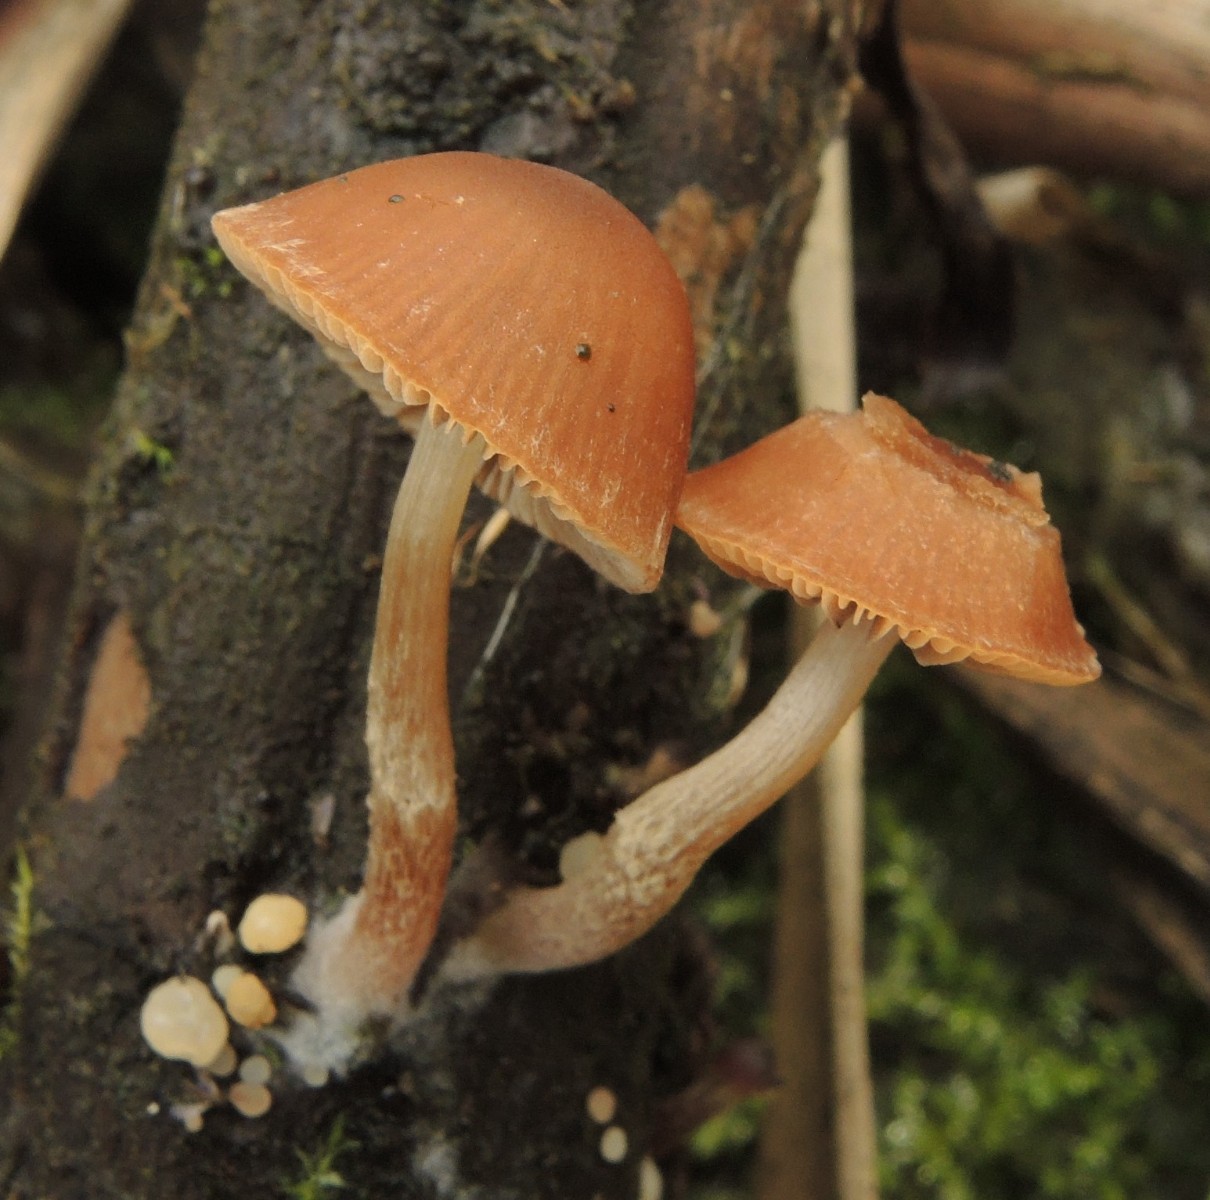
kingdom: Fungi
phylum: Basidiomycota
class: Agaricomycetes
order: Agaricales
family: Psathyrellaceae
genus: Psathyrella
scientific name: Psathyrella rubiginosa
